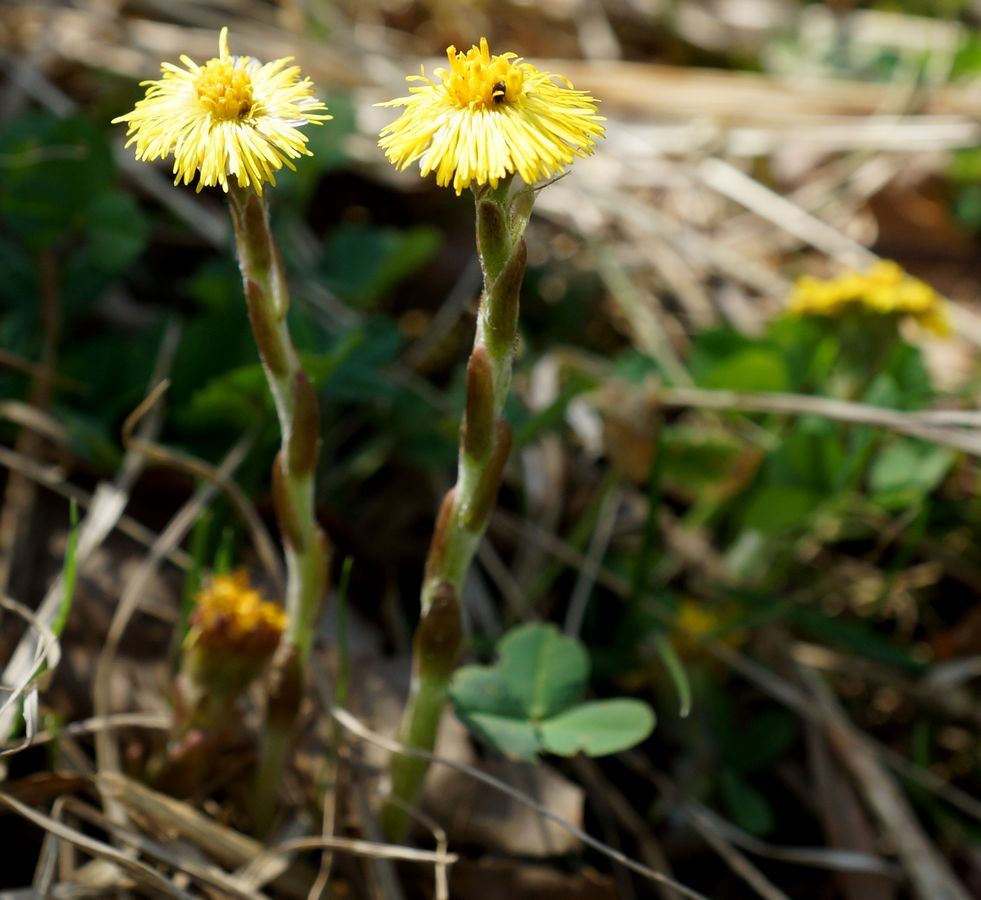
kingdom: Plantae
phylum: Tracheophyta
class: Magnoliopsida
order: Asterales
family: Asteraceae
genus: Tussilago
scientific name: Tussilago farfara
